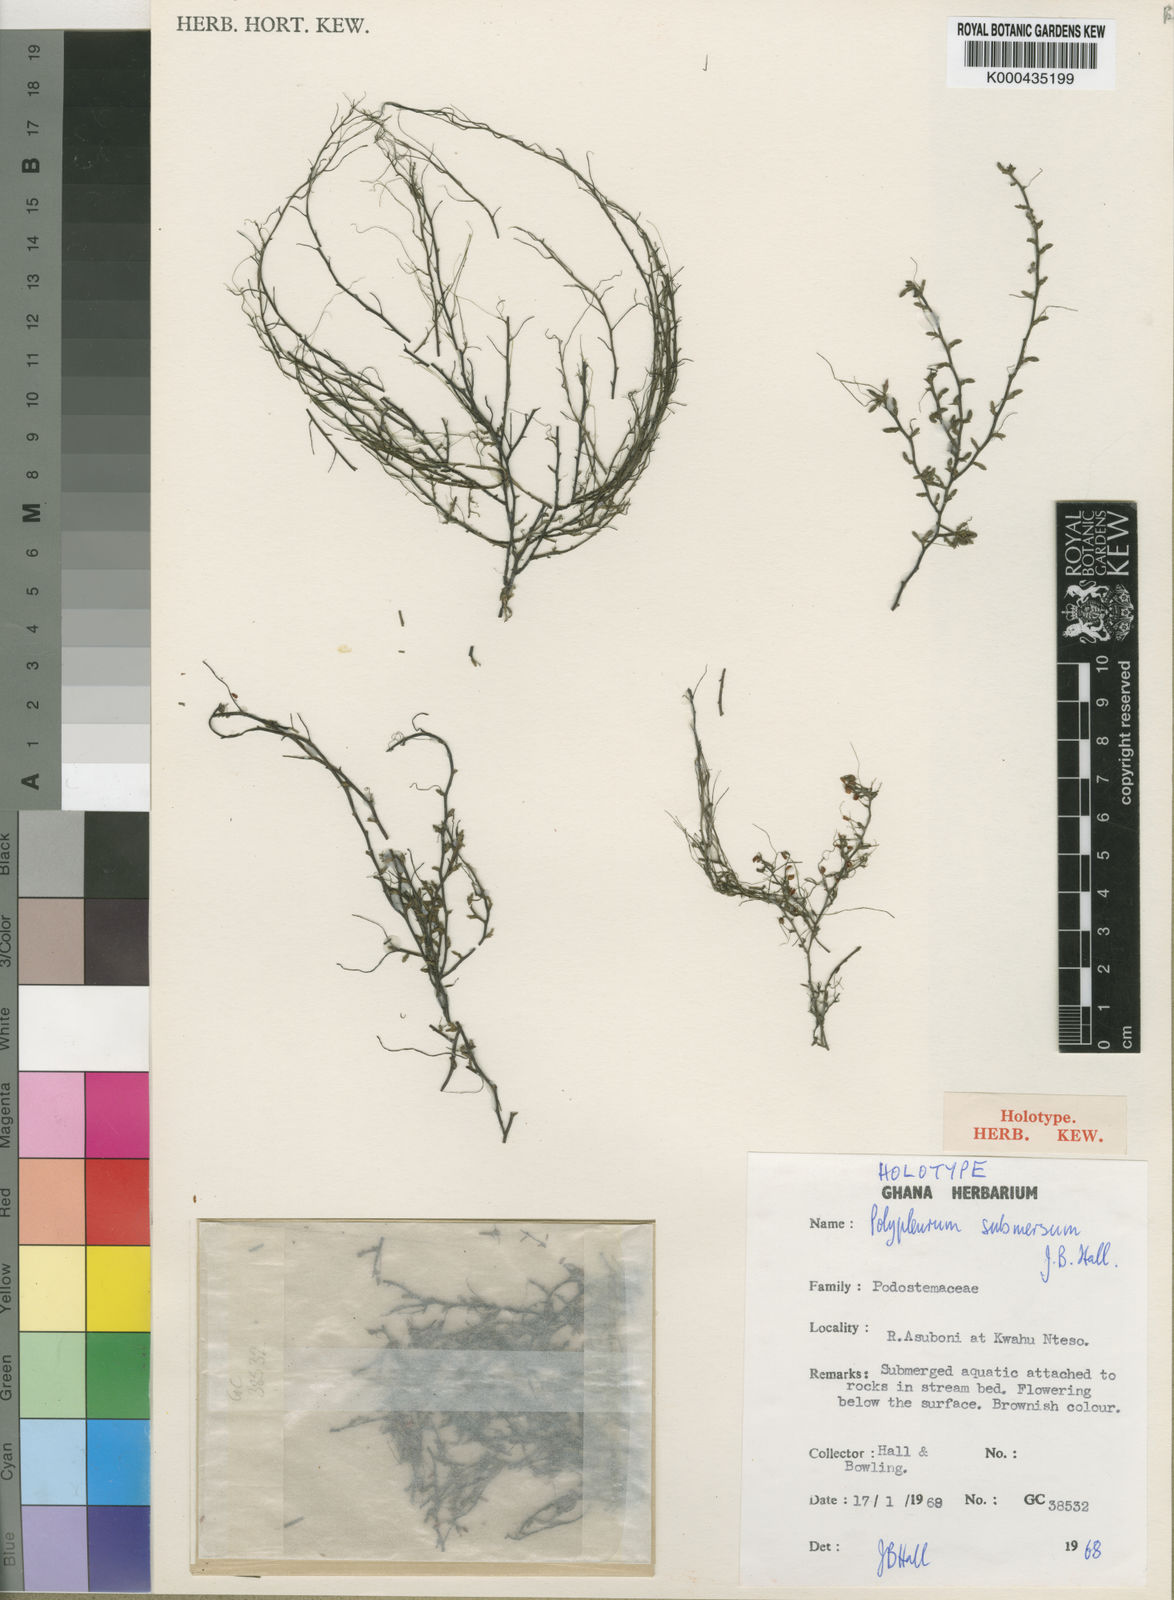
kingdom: Plantae
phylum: Tracheophyta
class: Magnoliopsida
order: Malpighiales
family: Podostemaceae
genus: Saxicolella
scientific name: Saxicolella submersa
